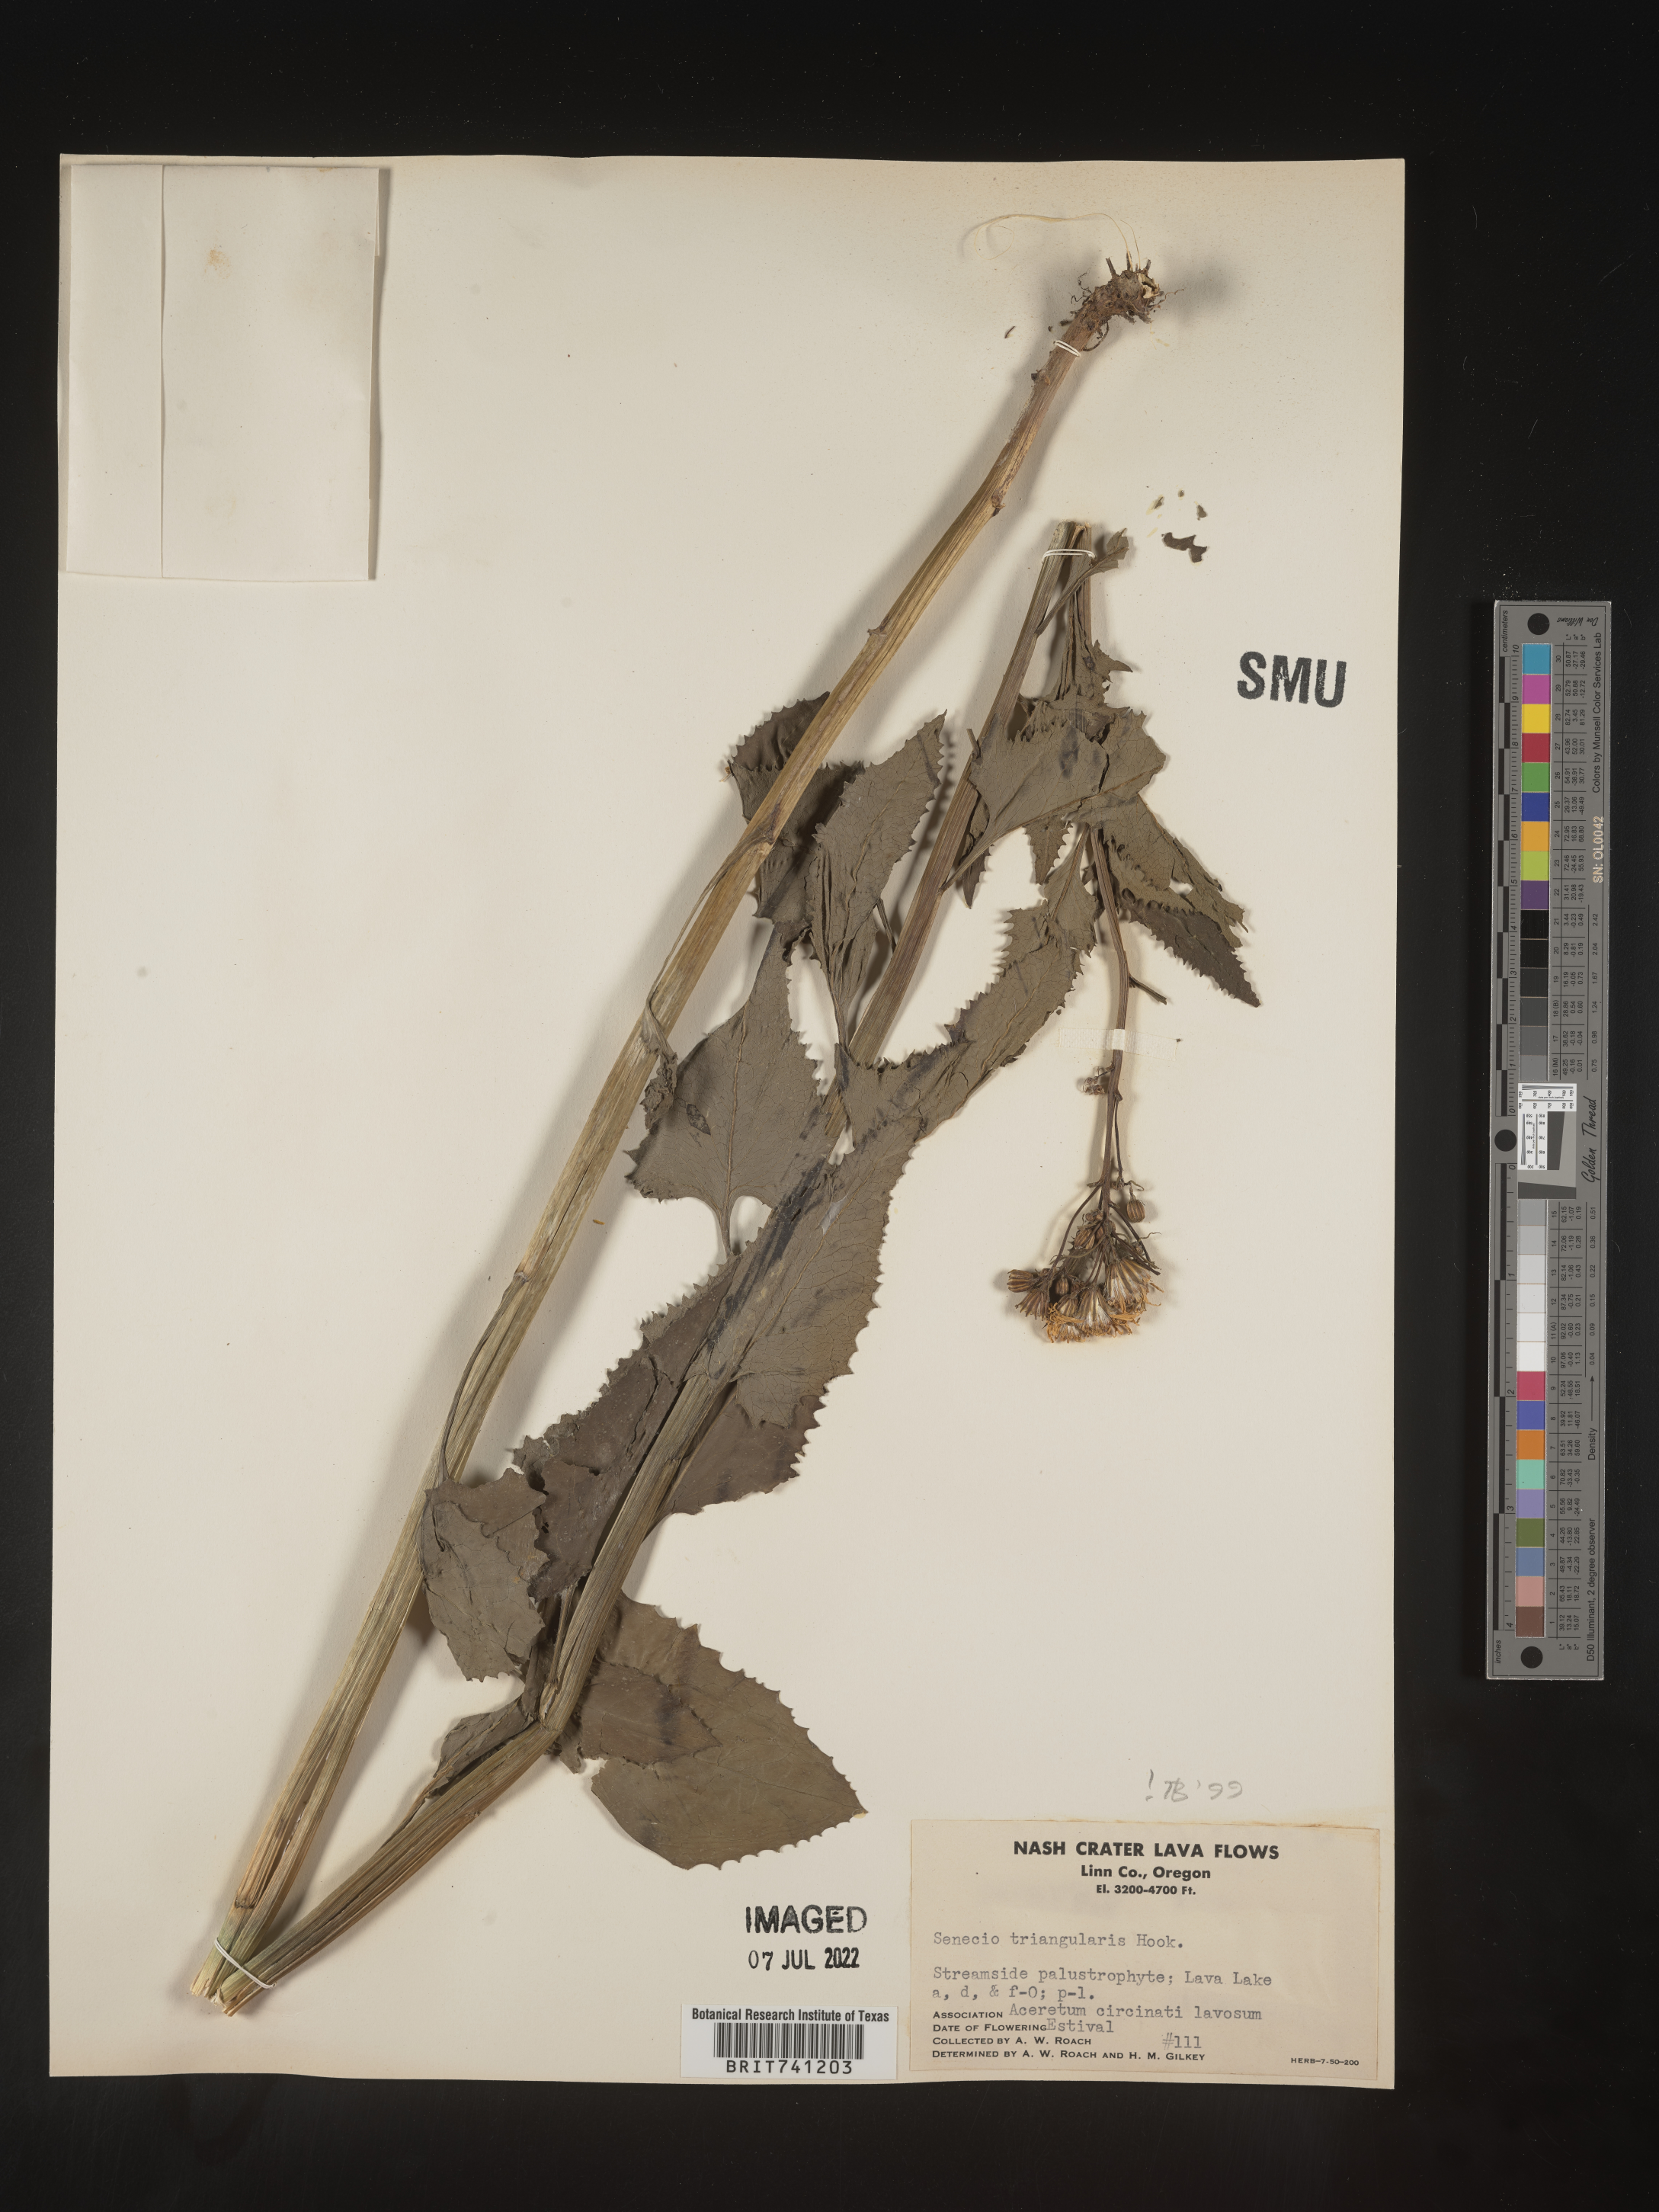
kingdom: Plantae
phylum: Tracheophyta
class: Magnoliopsida
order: Asterales
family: Asteraceae
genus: Senecio
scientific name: Senecio triangularis
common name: Arrowleaf butterweed
